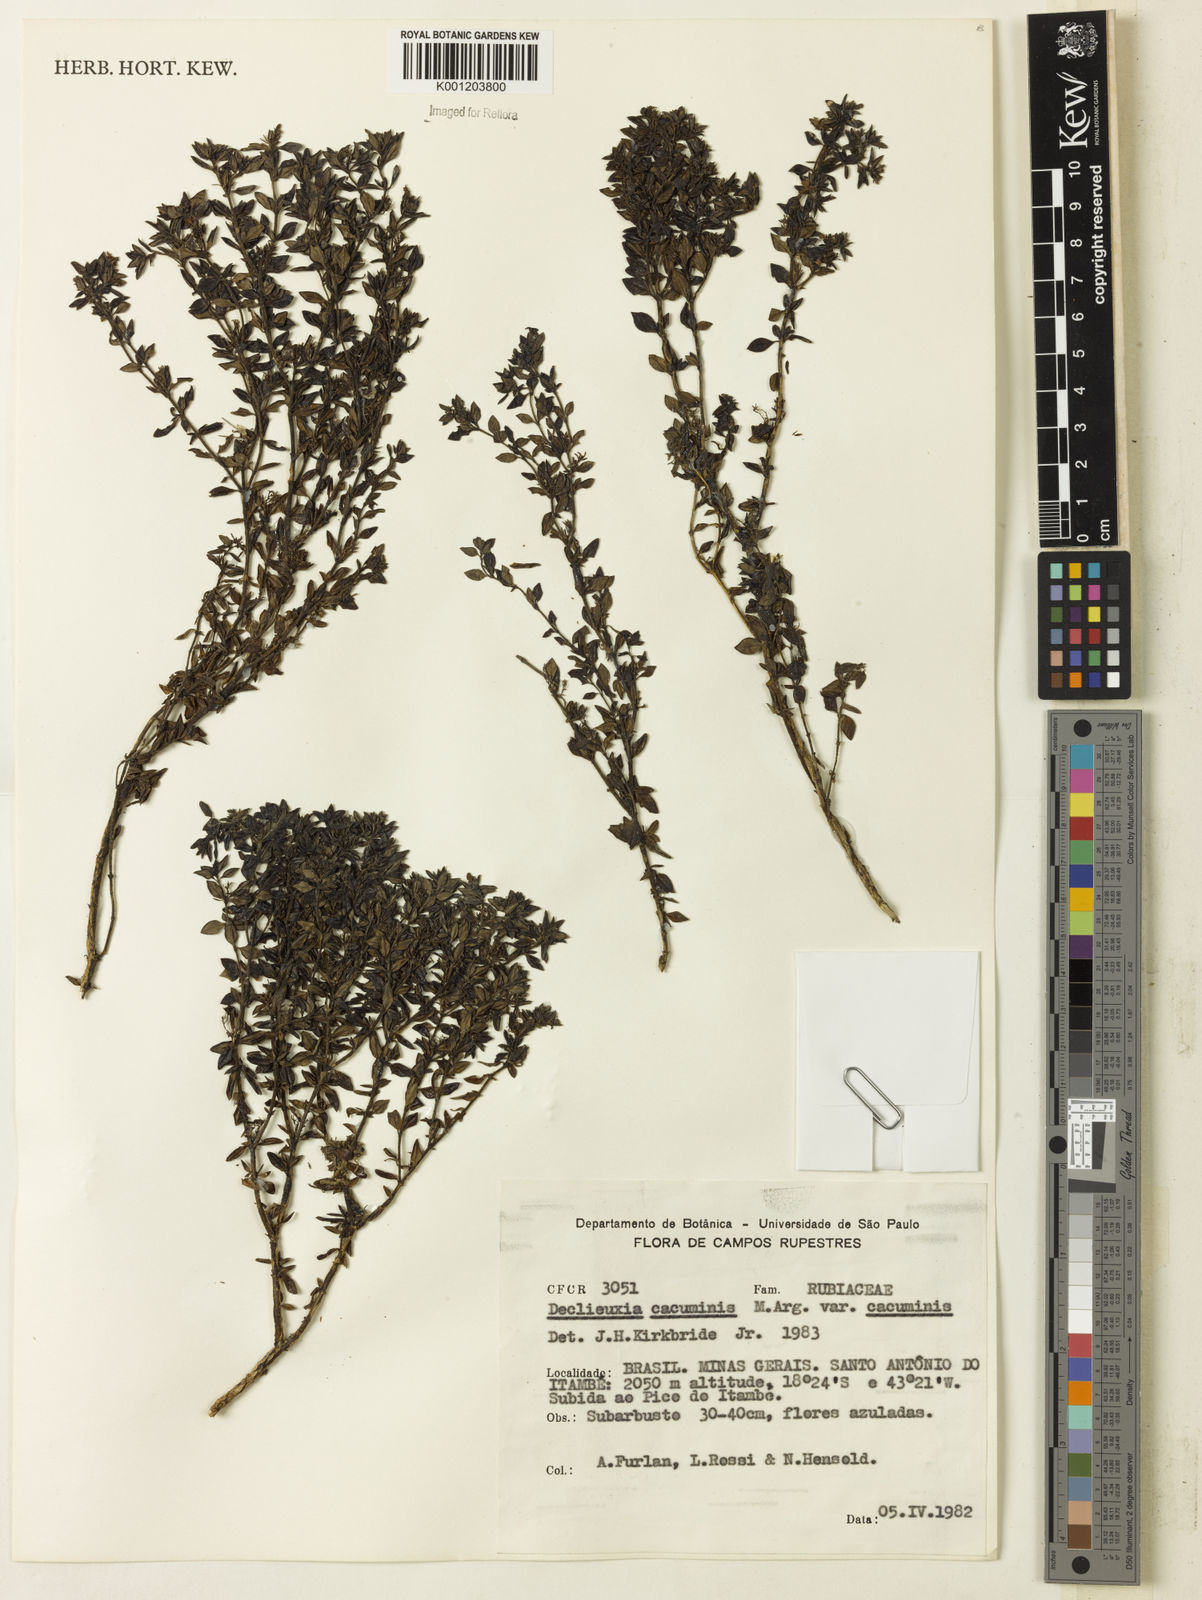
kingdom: Plantae
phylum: Tracheophyta
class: Magnoliopsida
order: Gentianales
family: Rubiaceae
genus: Declieuxia
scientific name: Declieuxia
